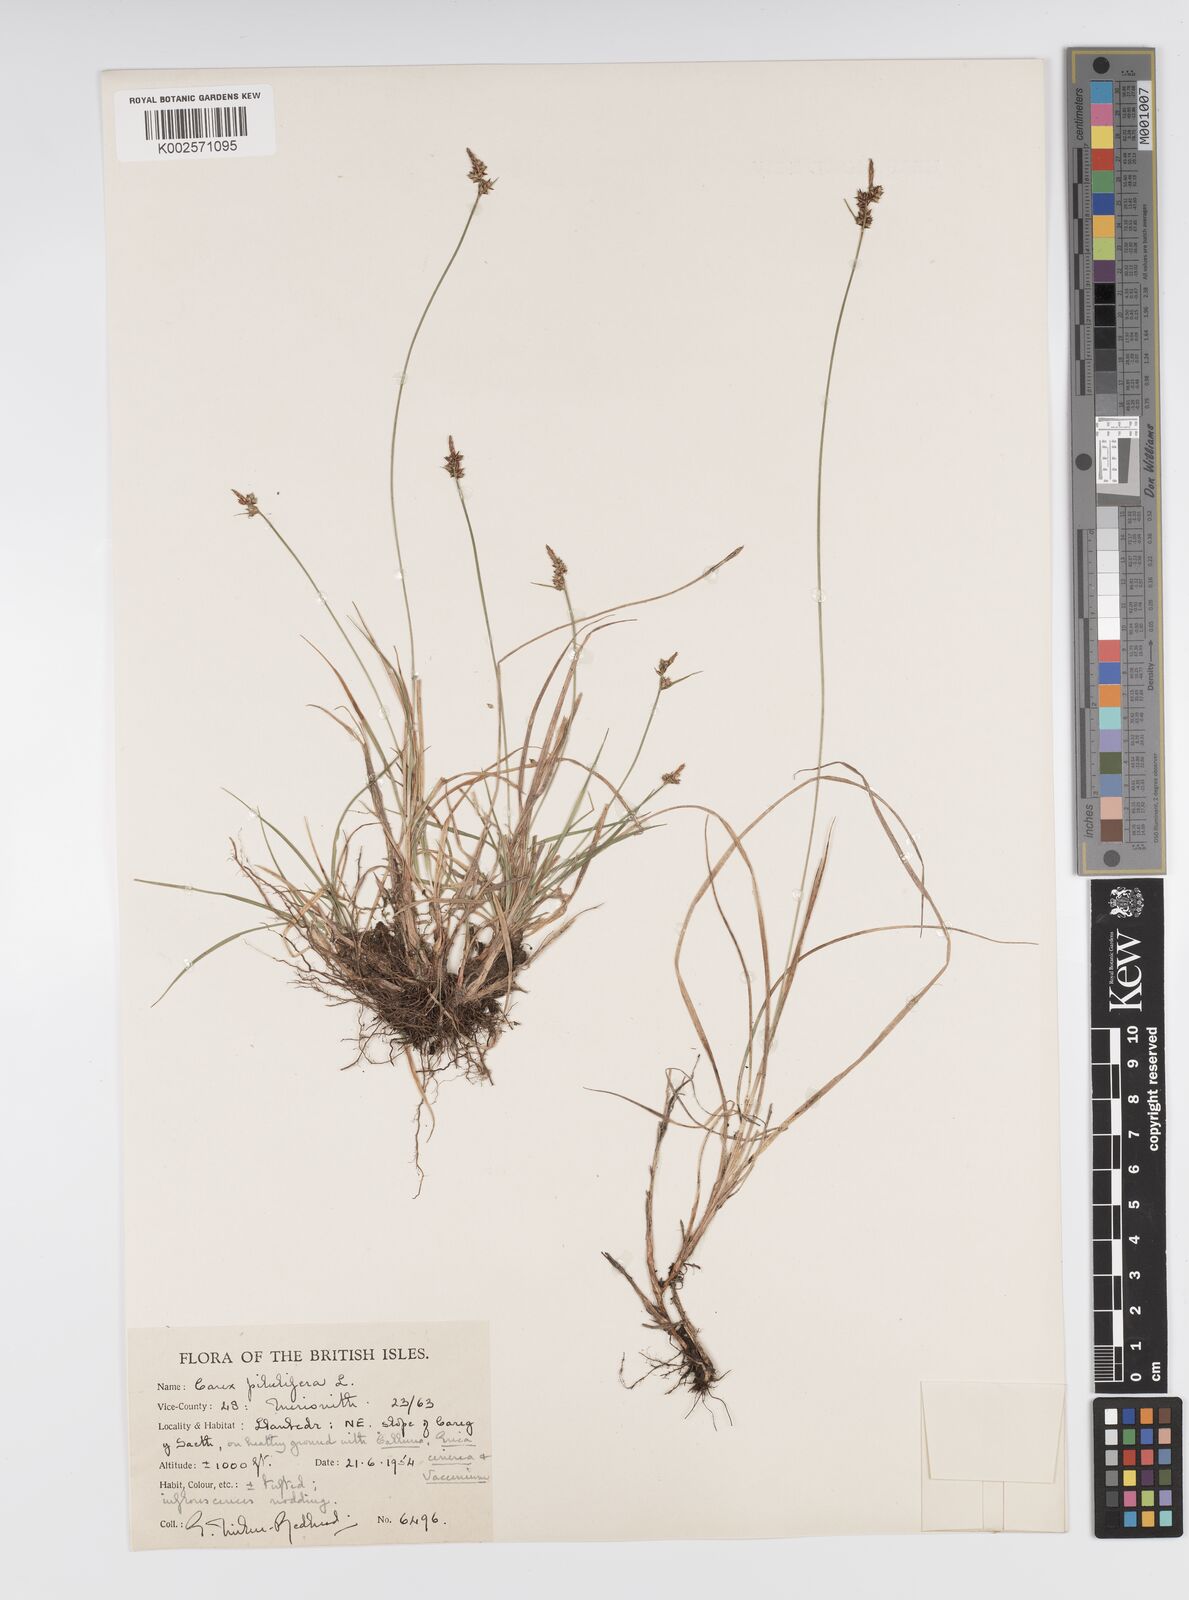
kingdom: Plantae
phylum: Tracheophyta
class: Liliopsida
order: Poales
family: Cyperaceae
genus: Carex
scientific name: Carex pilulifera
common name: Pill sedge
